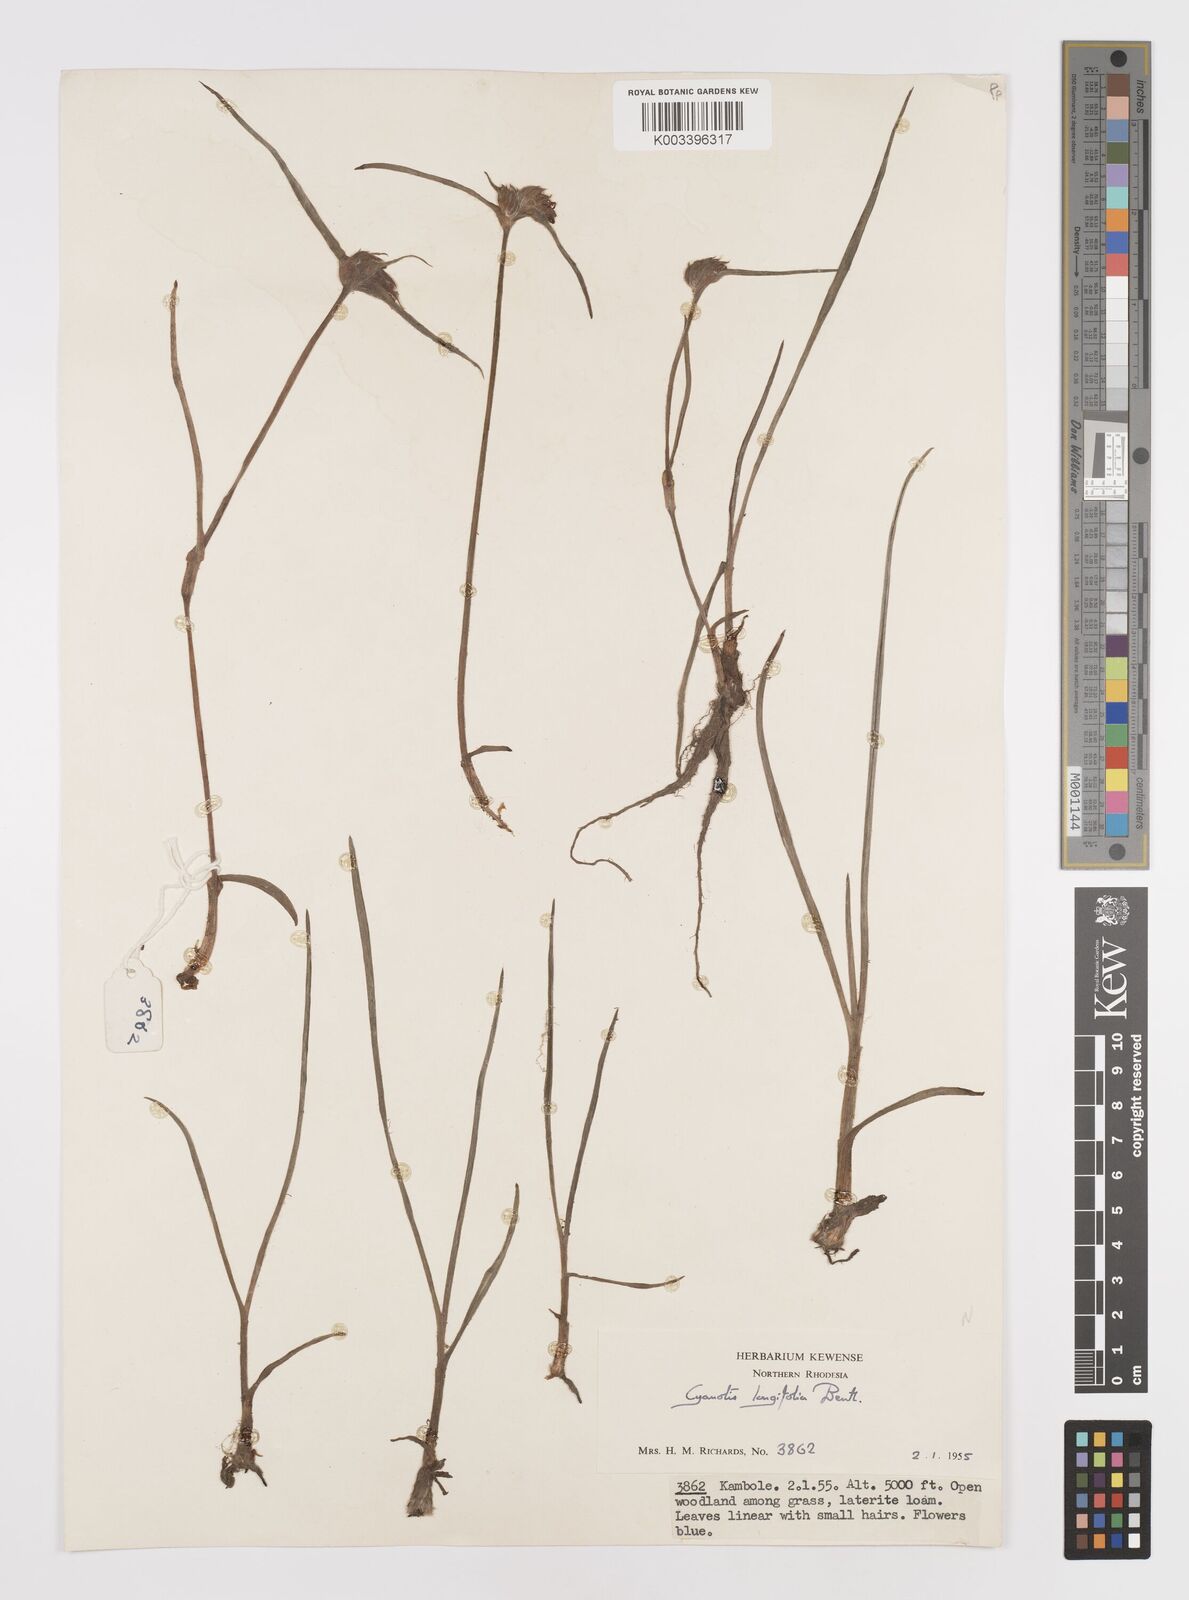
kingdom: Plantae
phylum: Tracheophyta
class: Liliopsida
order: Commelinales
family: Commelinaceae
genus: Cyanotis
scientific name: Cyanotis longifolia
